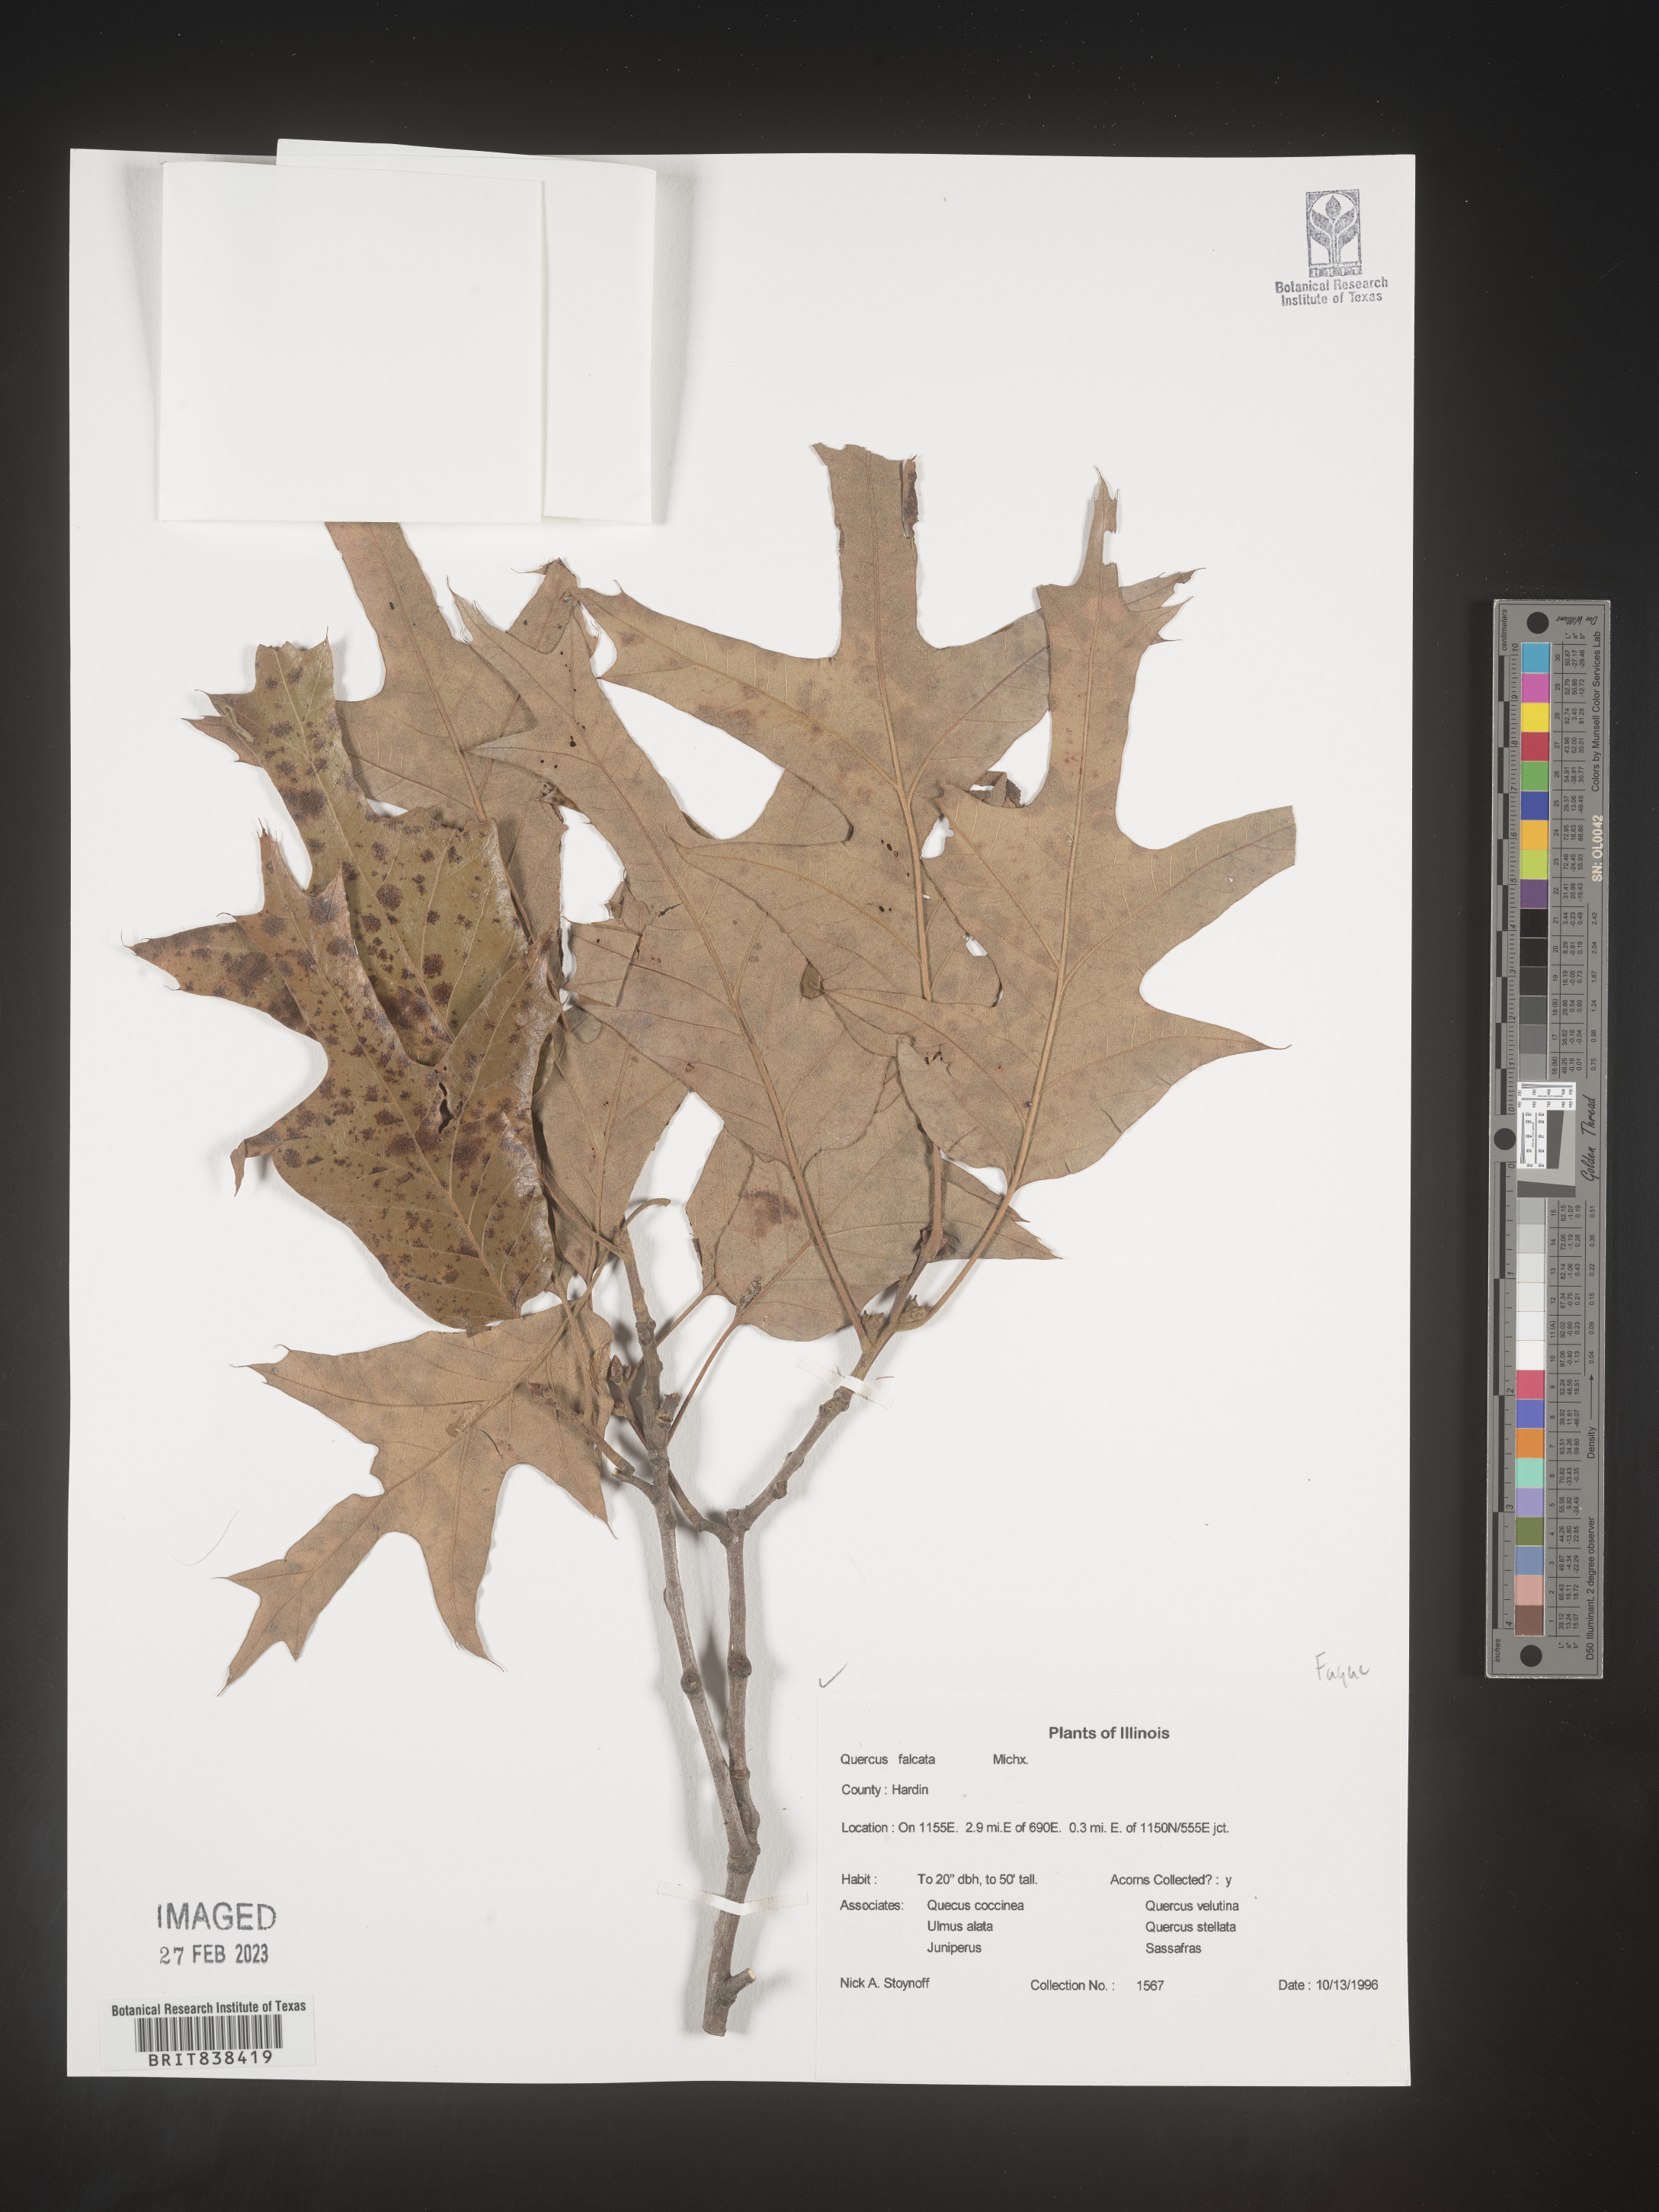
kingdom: Plantae
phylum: Tracheophyta
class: Magnoliopsida
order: Fagales
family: Fagaceae
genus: Quercus
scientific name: Quercus falcata
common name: Southern red oak
